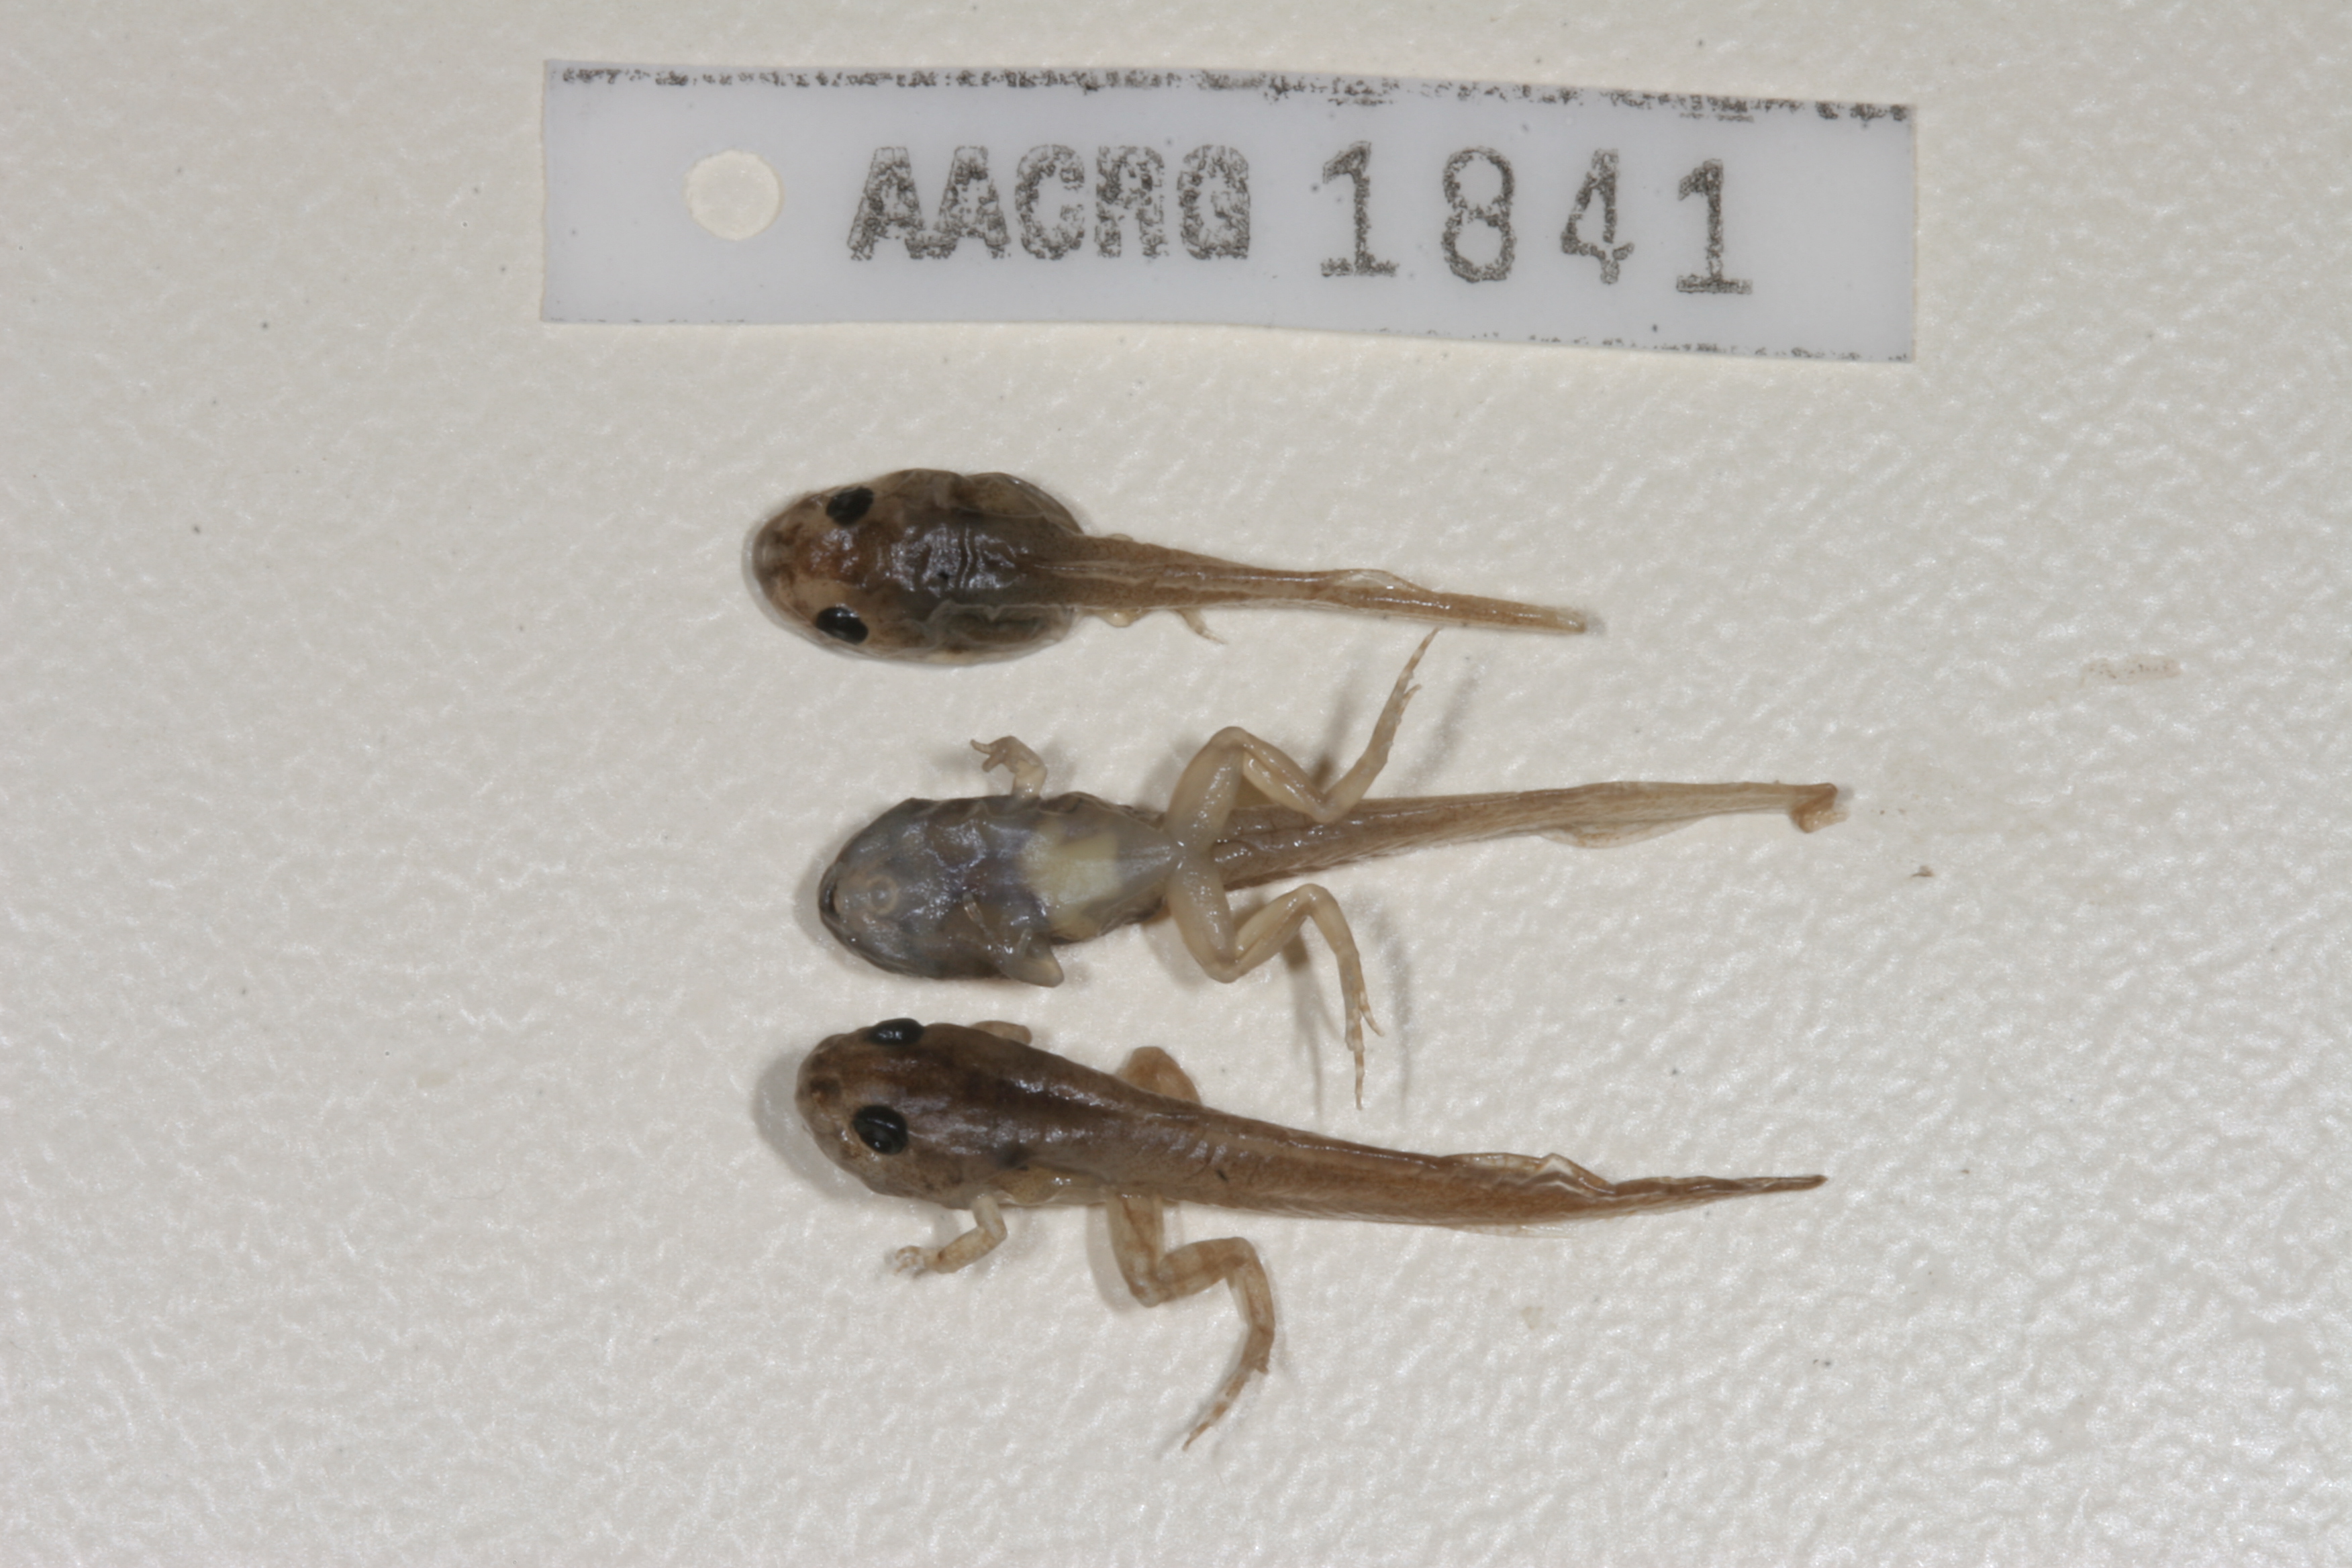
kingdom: Animalia
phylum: Chordata
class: Amphibia
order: Anura
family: Phrynobatrachidae
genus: Phrynobatrachus
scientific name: Phrynobatrachus natalensis
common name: Snoring puddle frog
